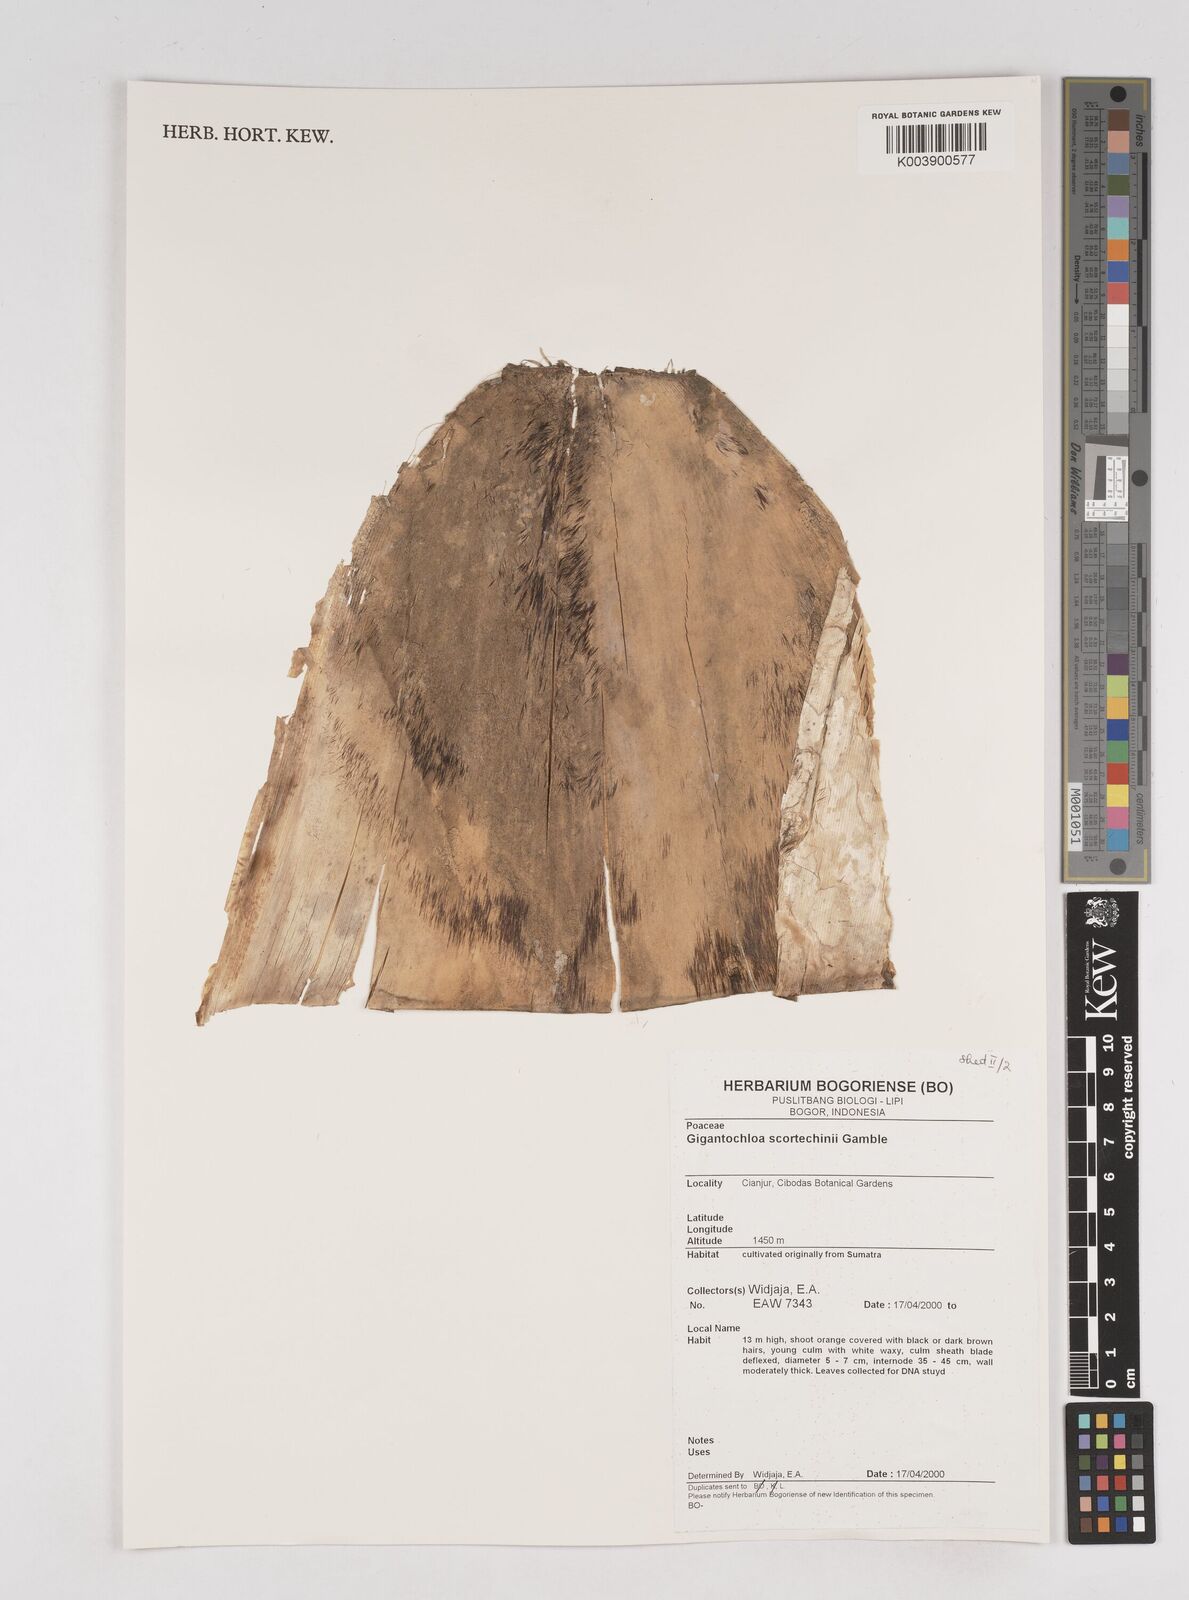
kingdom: Plantae
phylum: Tracheophyta
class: Liliopsida
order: Poales
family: Poaceae
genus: Gigantochloa
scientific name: Gigantochloa scortechinii
